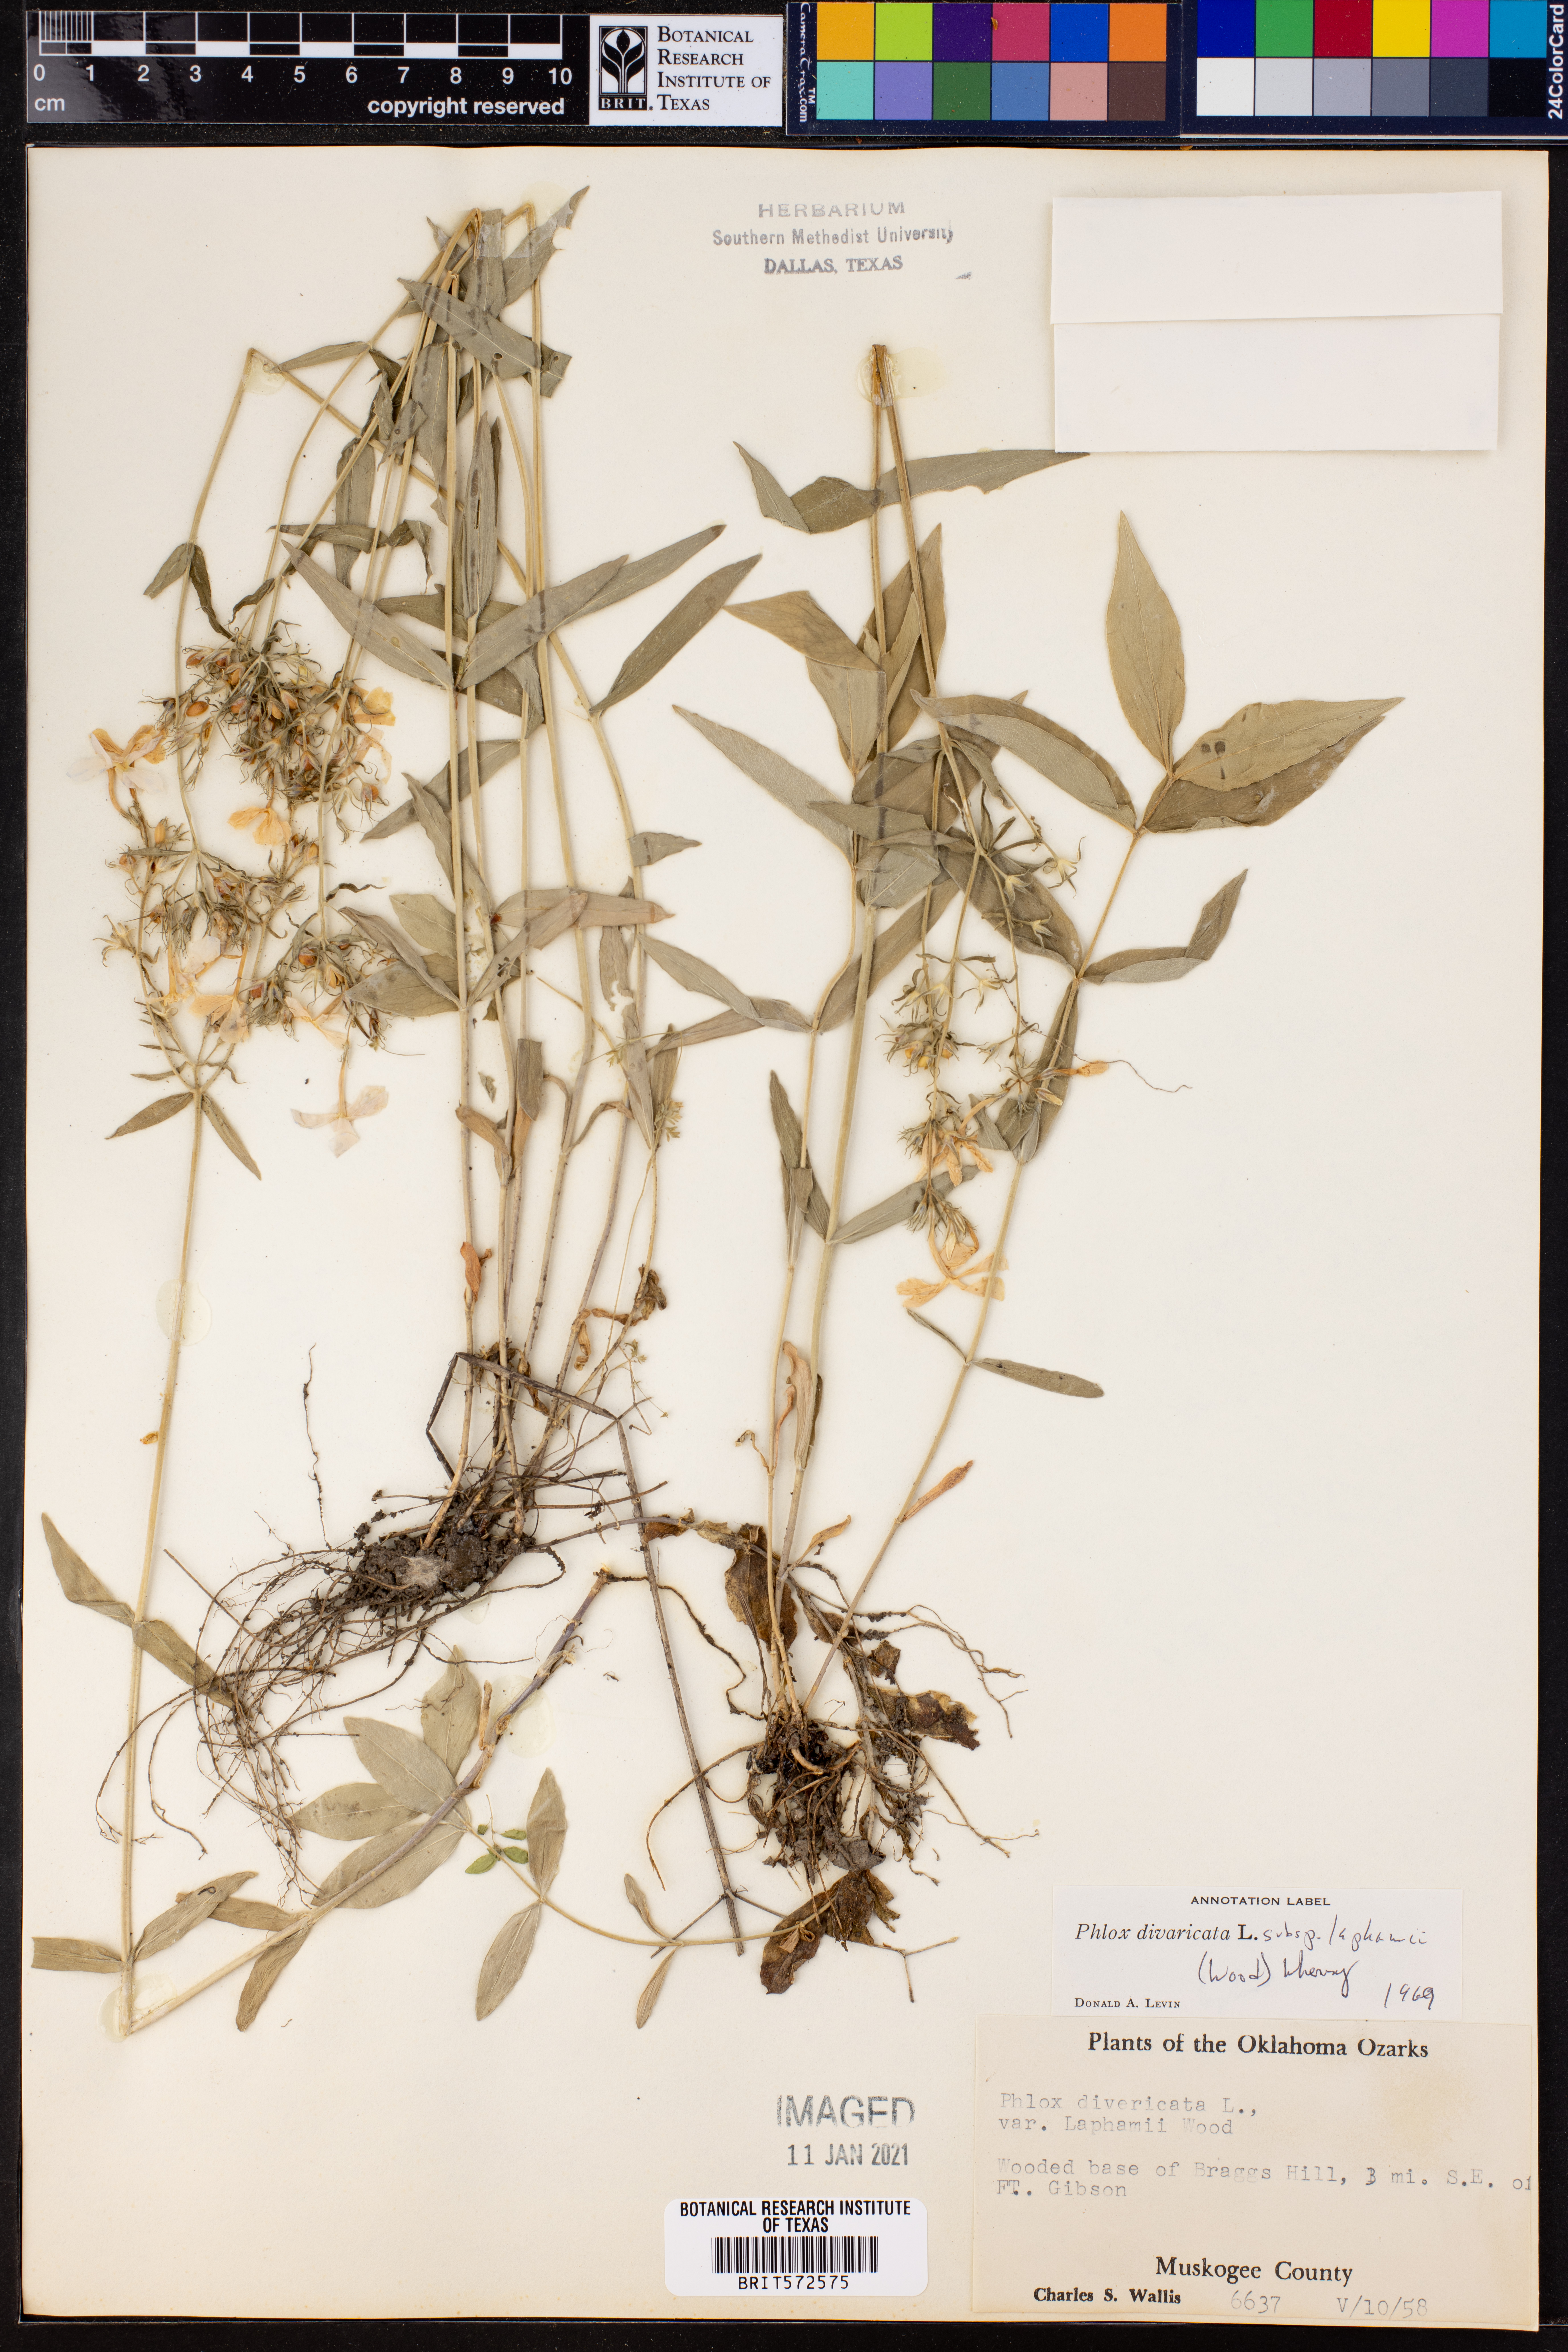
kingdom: Plantae
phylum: Tracheophyta
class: Magnoliopsida
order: Ericales
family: Polemoniaceae
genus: Phlox
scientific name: Phlox divaricata
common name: Blue phlox
